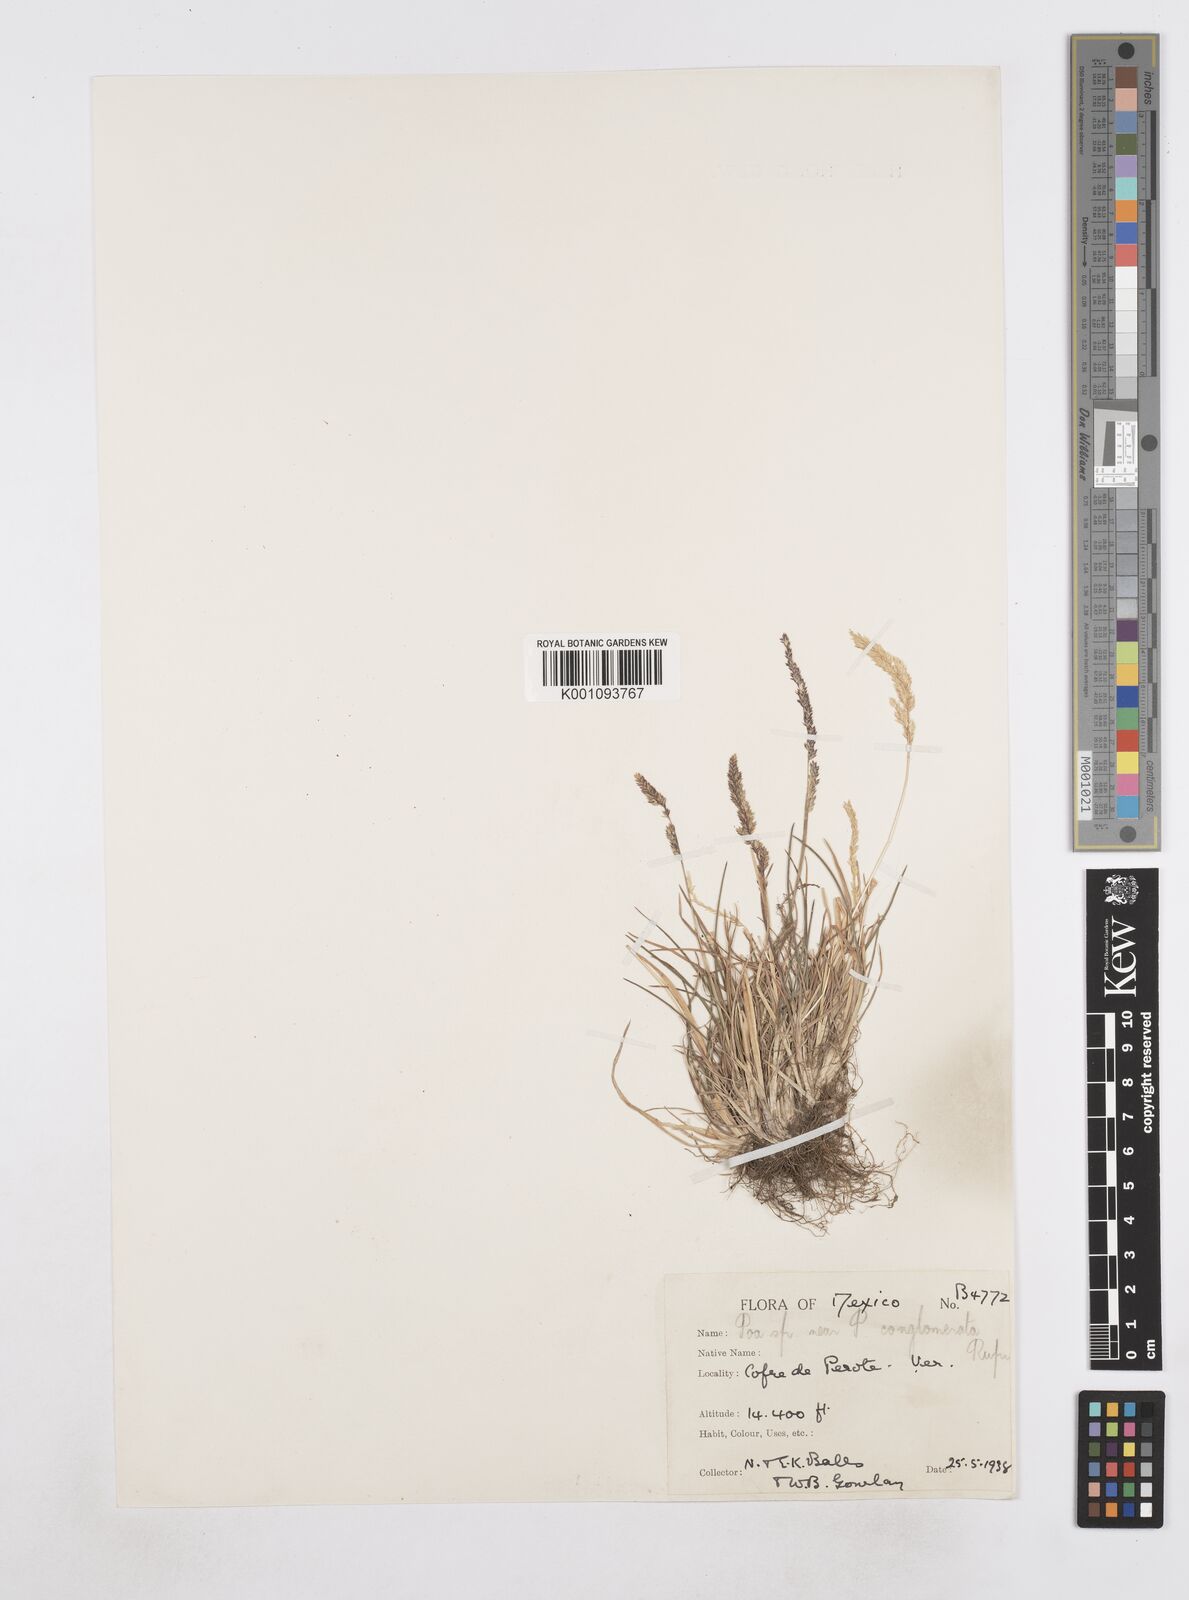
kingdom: Plantae
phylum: Tracheophyta
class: Liliopsida
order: Poales
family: Poaceae
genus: Poa
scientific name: Poa scaberula
